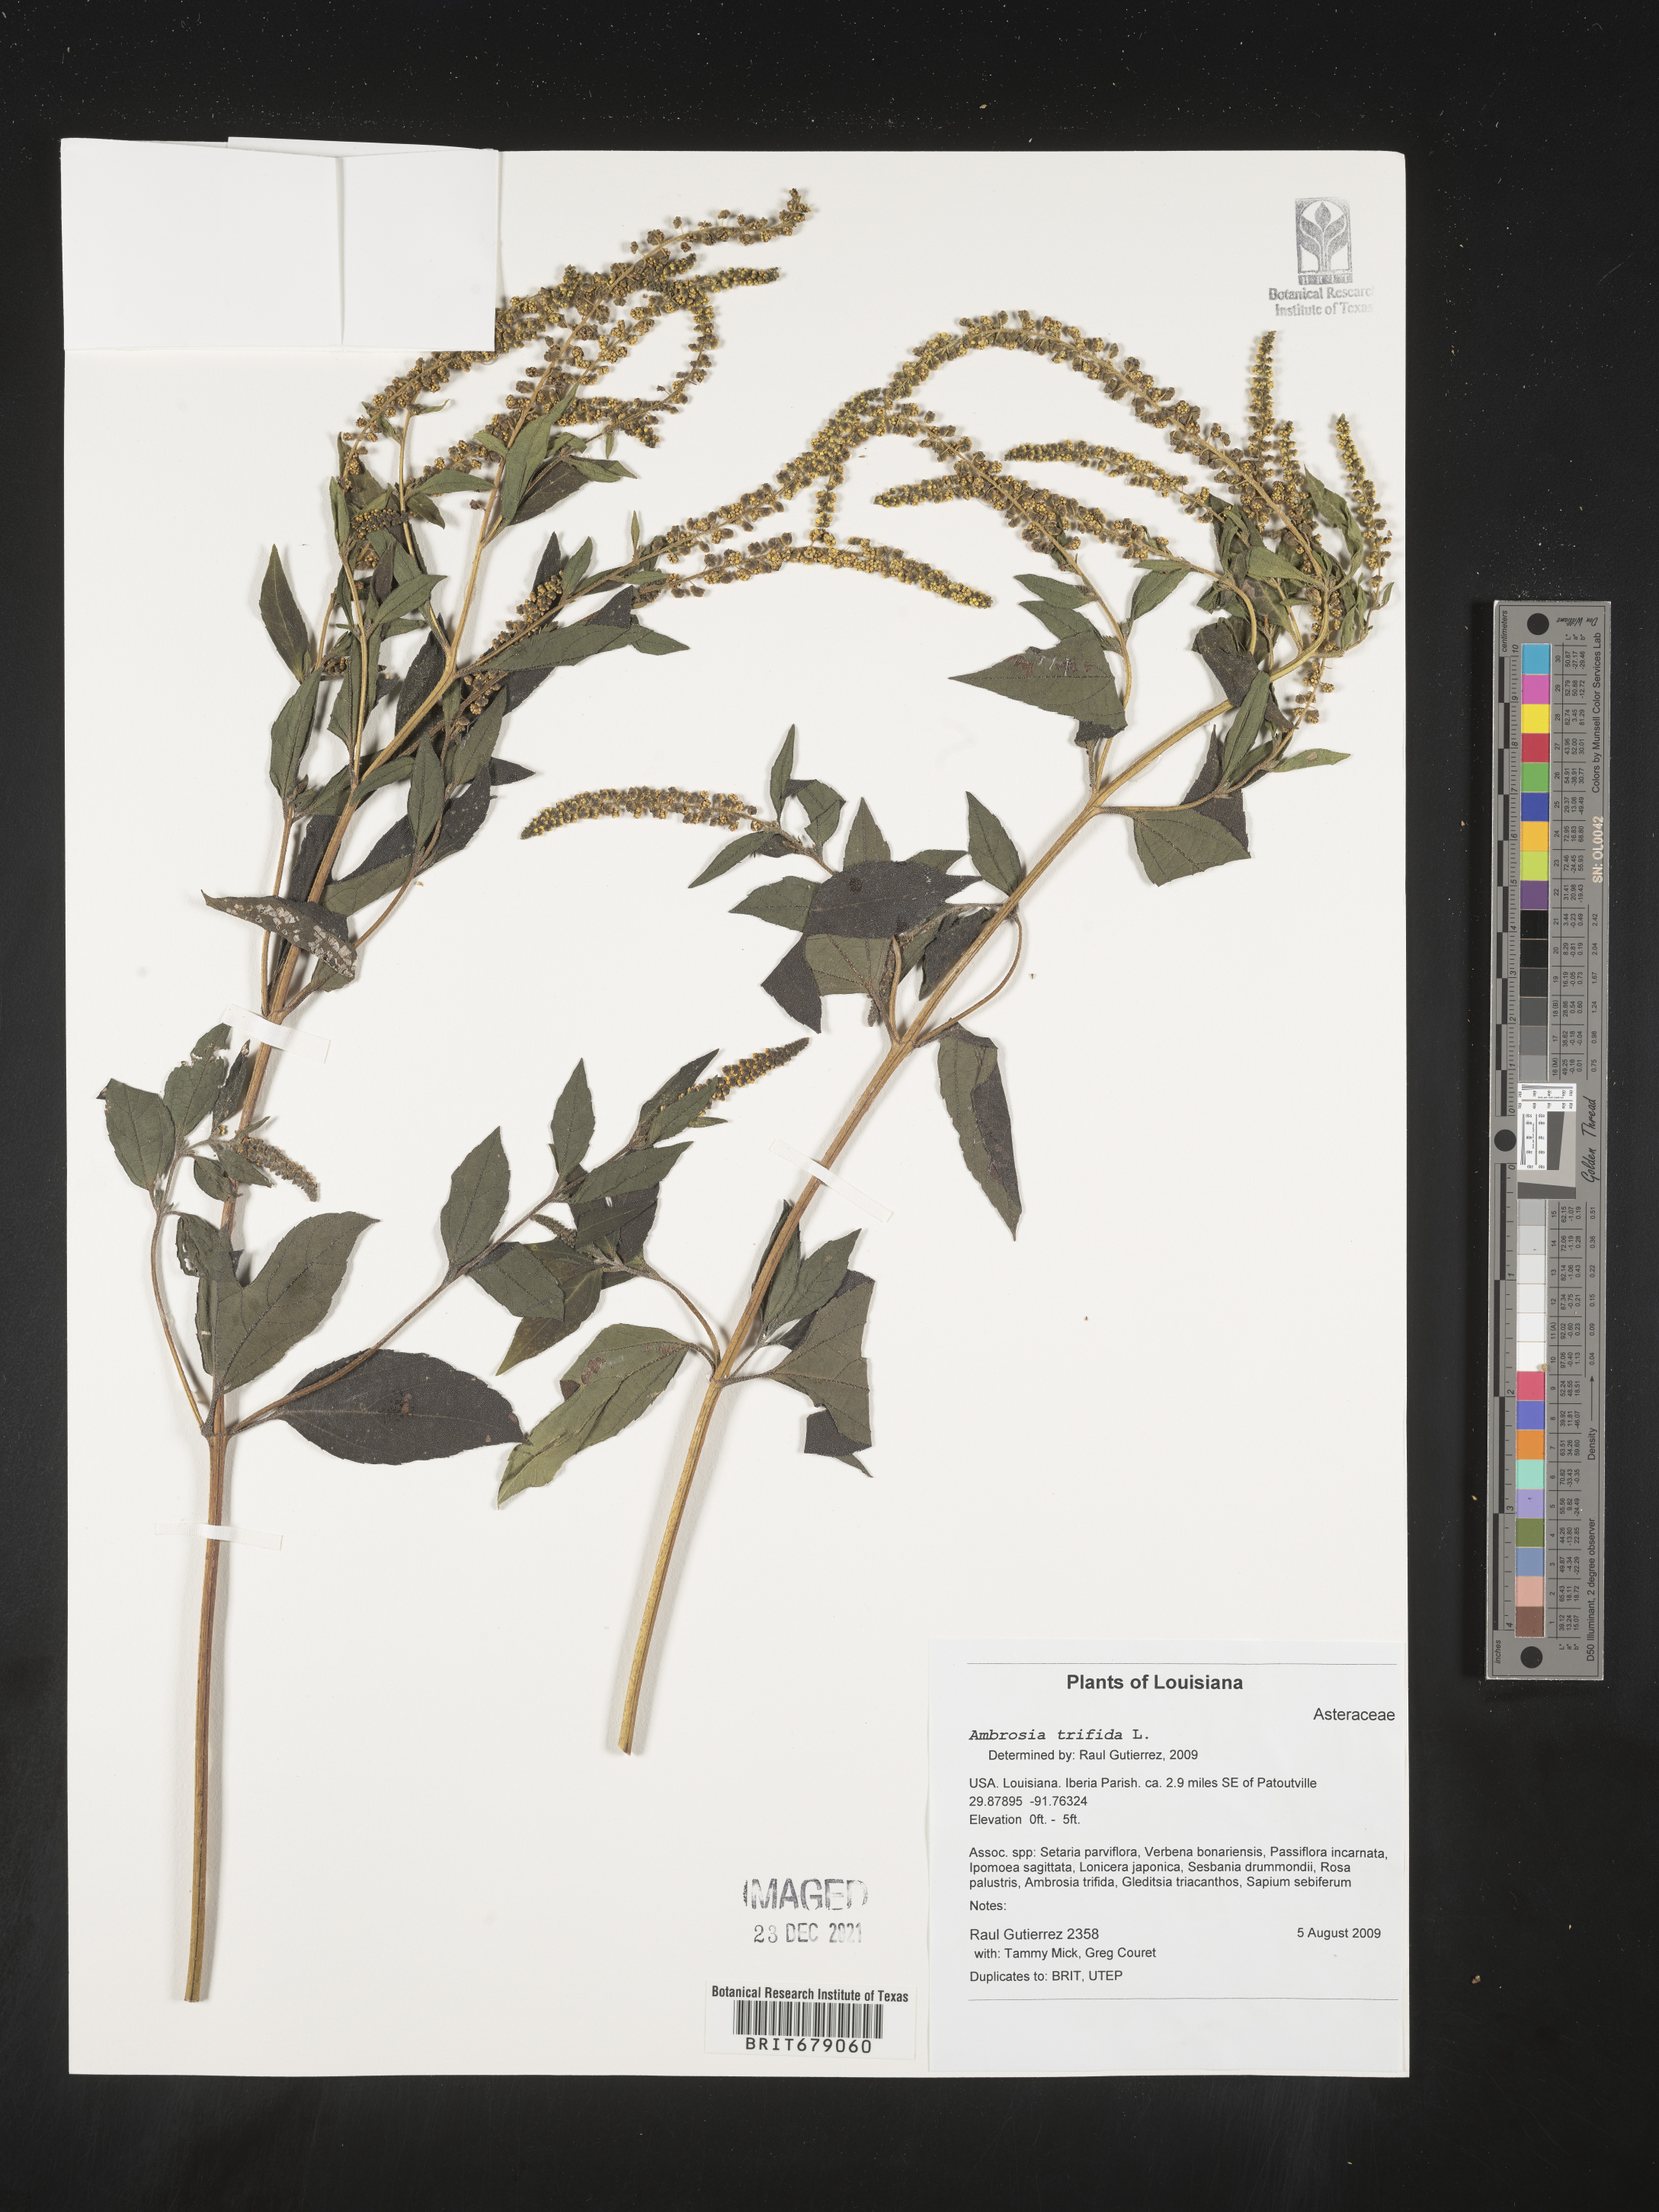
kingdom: Plantae
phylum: Tracheophyta
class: Magnoliopsida
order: Asterales
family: Asteraceae
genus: Ambrosia
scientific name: Ambrosia trifida
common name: Giant ragweed
